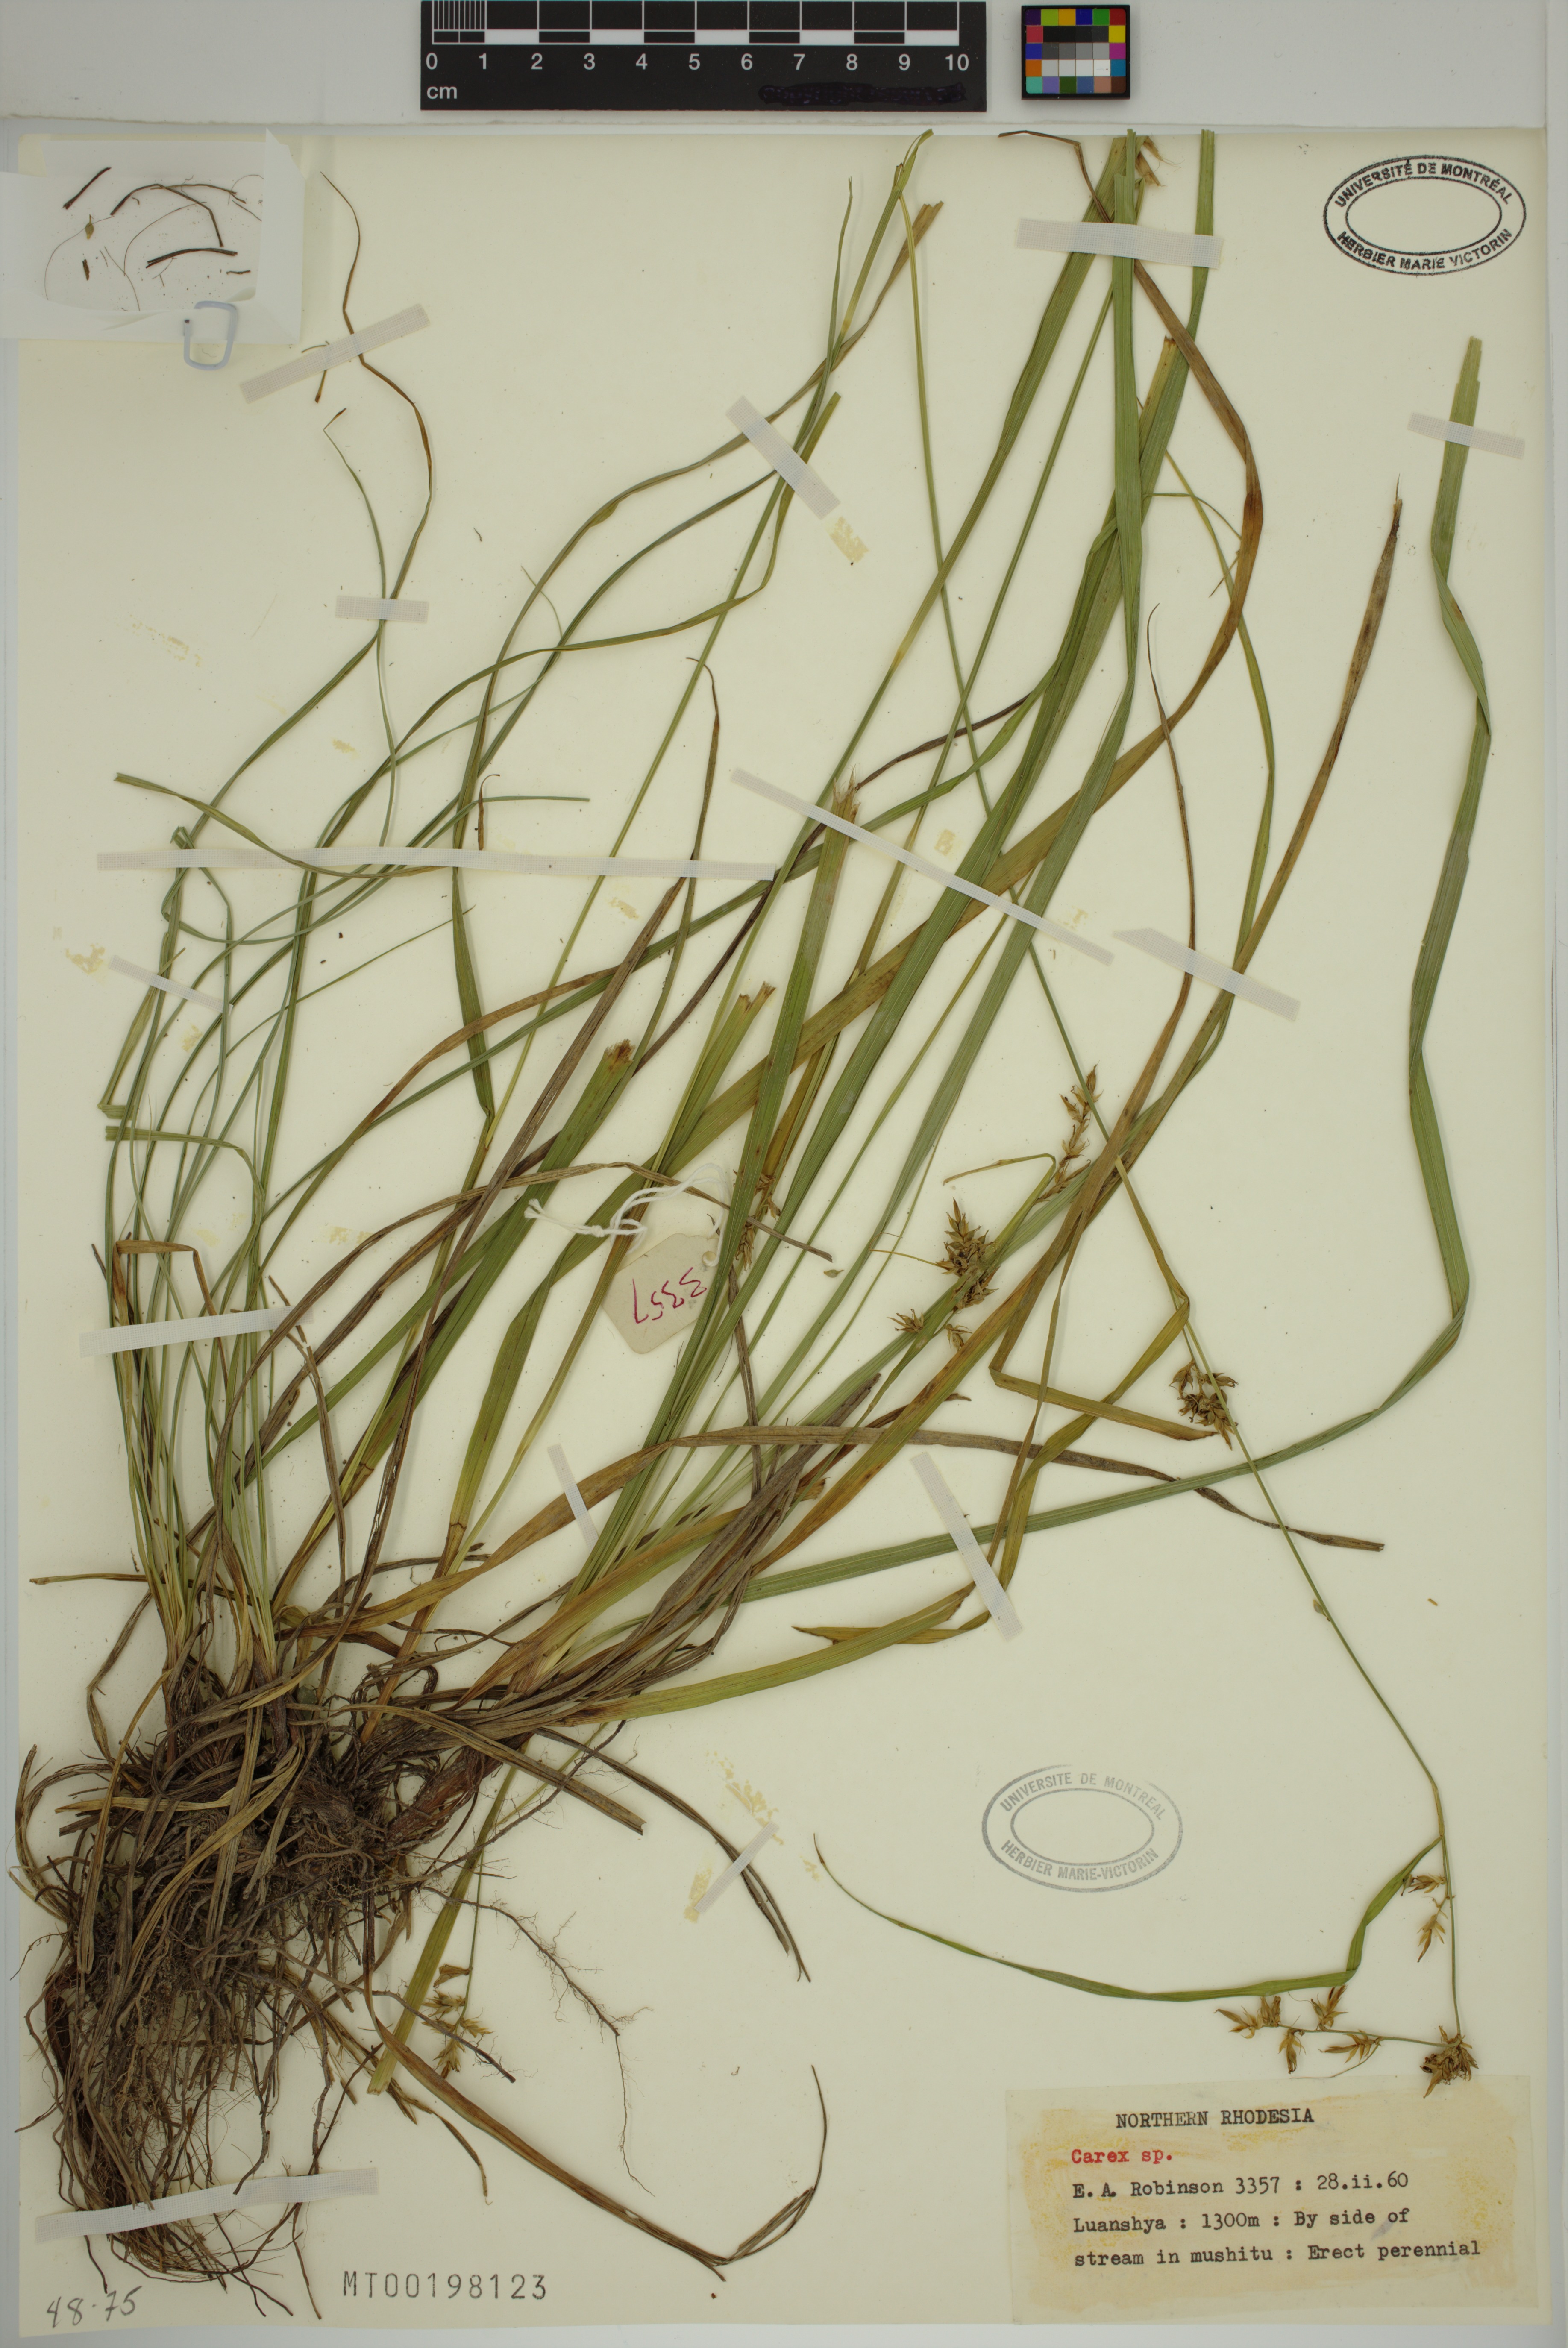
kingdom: Plantae
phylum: Tracheophyta
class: Liliopsida
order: Poales
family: Cyperaceae
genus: Carex
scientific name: Carex
